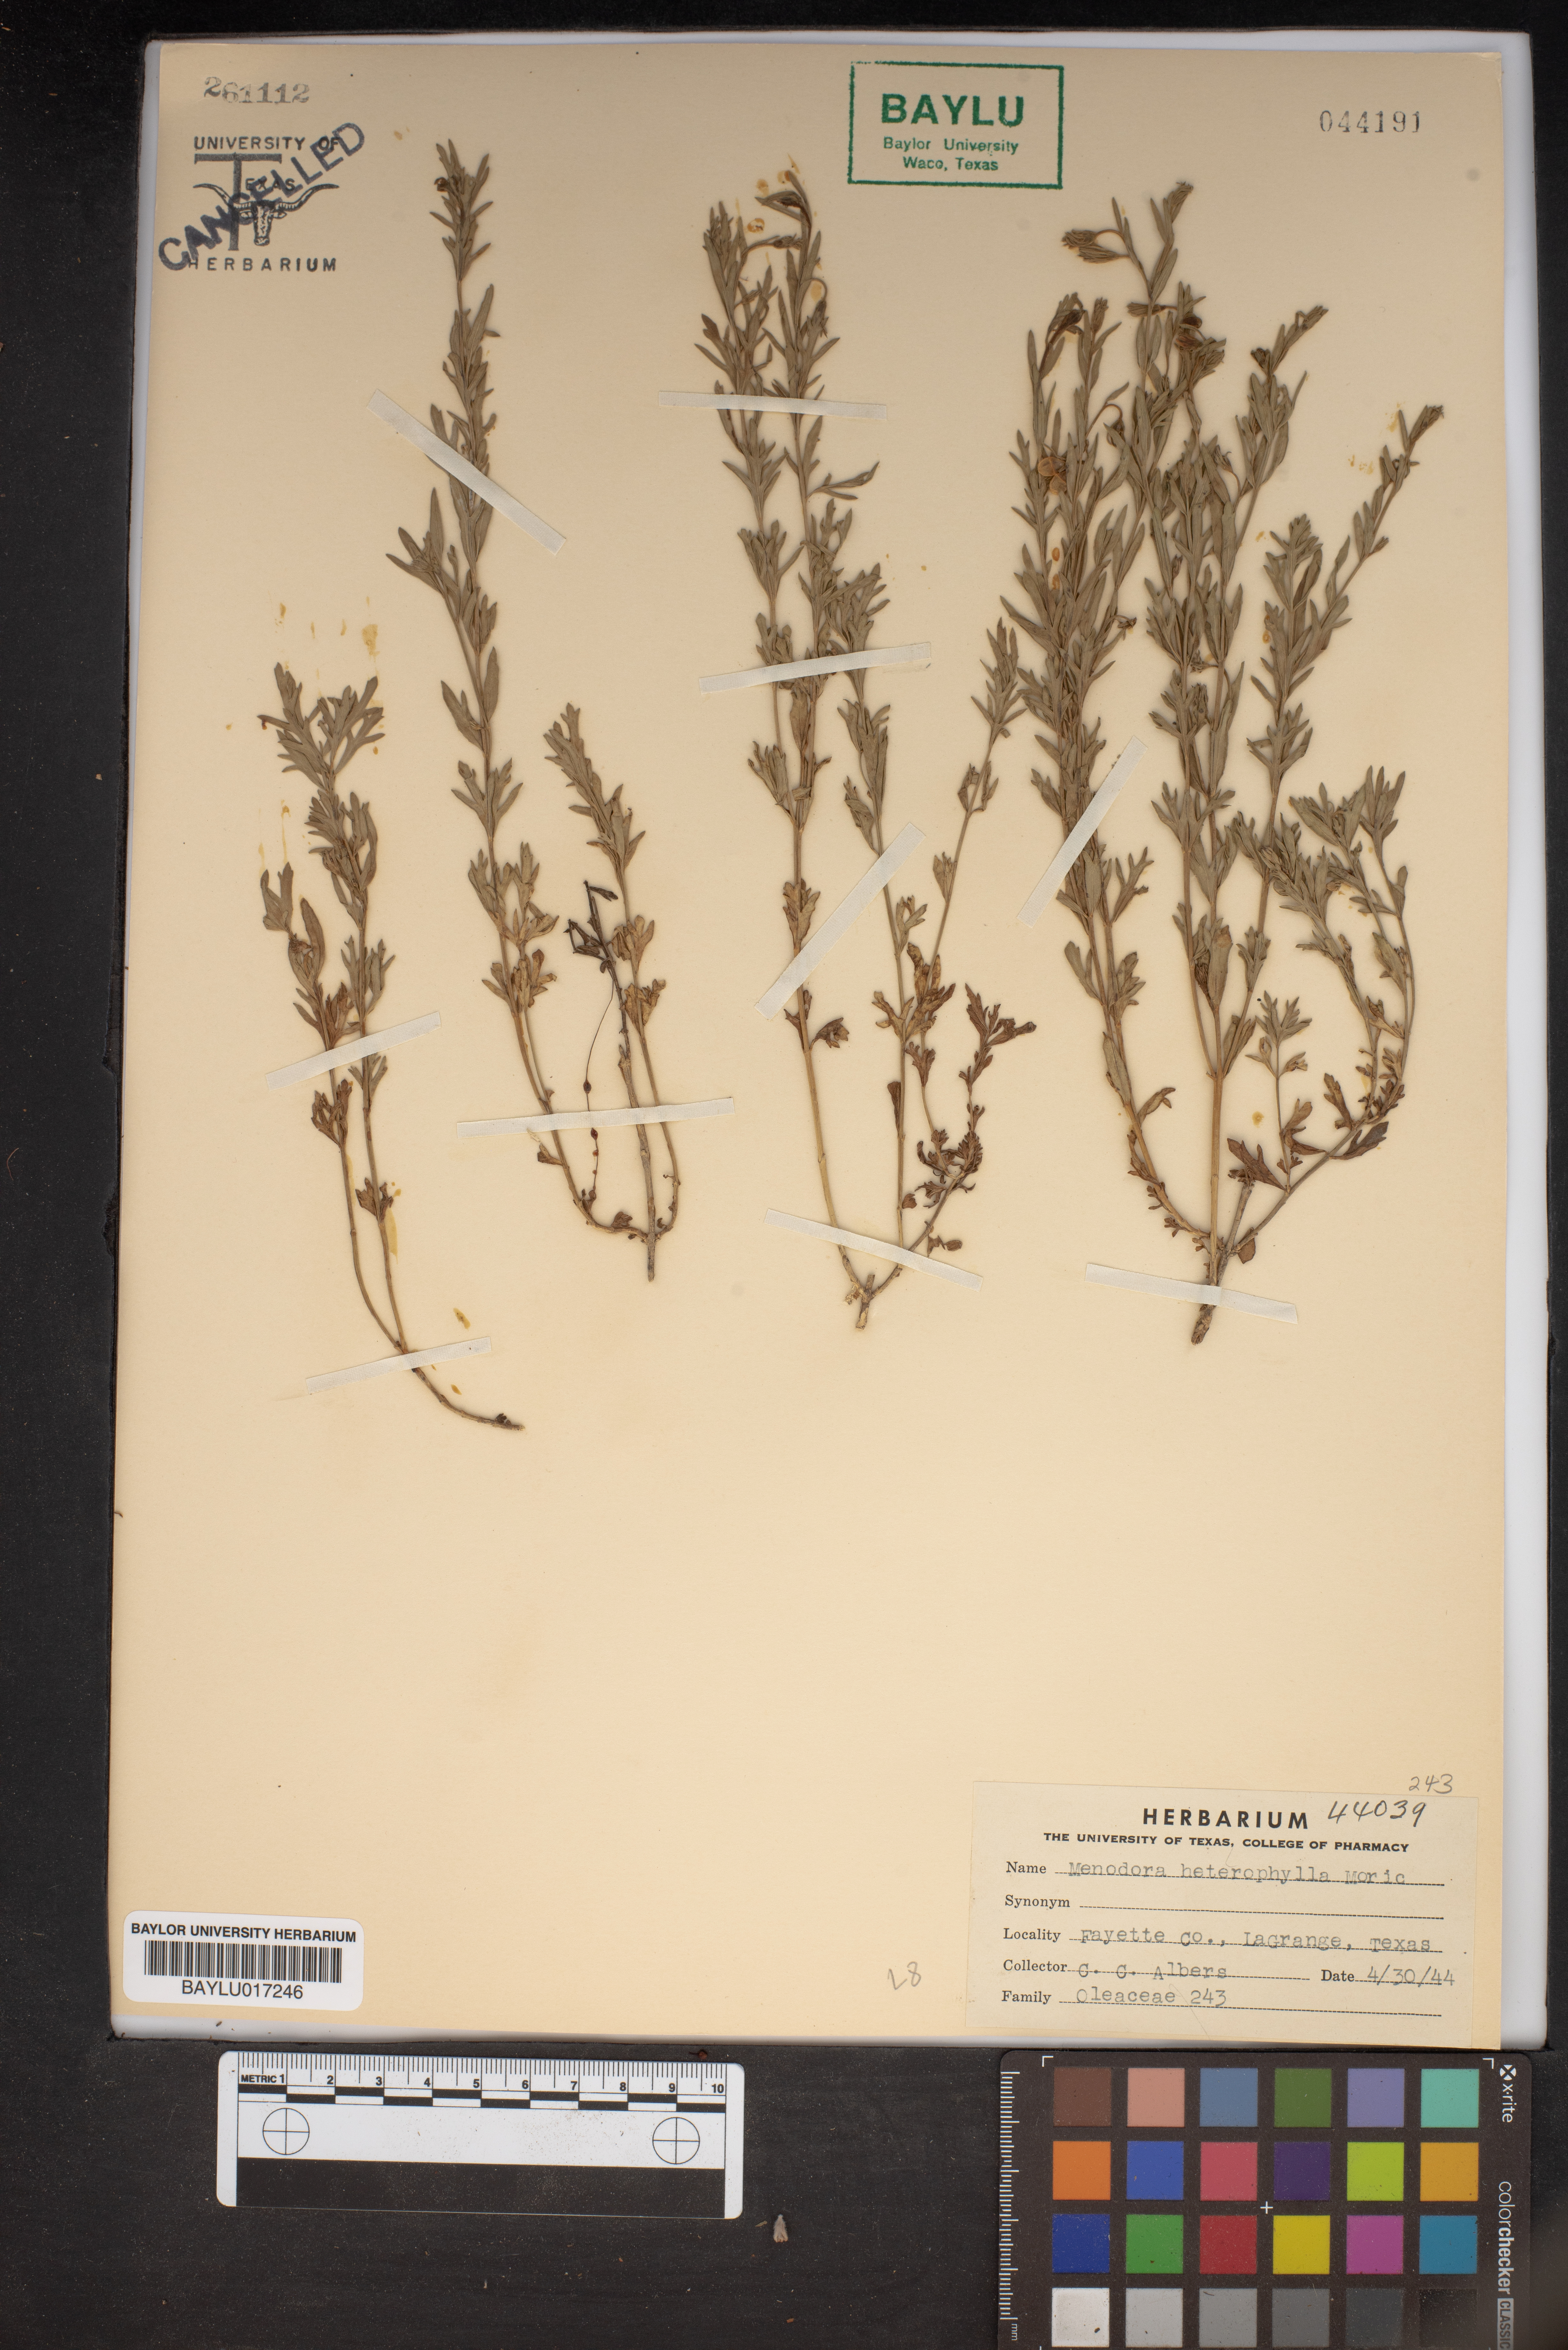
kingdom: Plantae
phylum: Tracheophyta
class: Magnoliopsida
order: Lamiales
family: Oleaceae
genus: Menodora
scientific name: Menodora heterophylla
